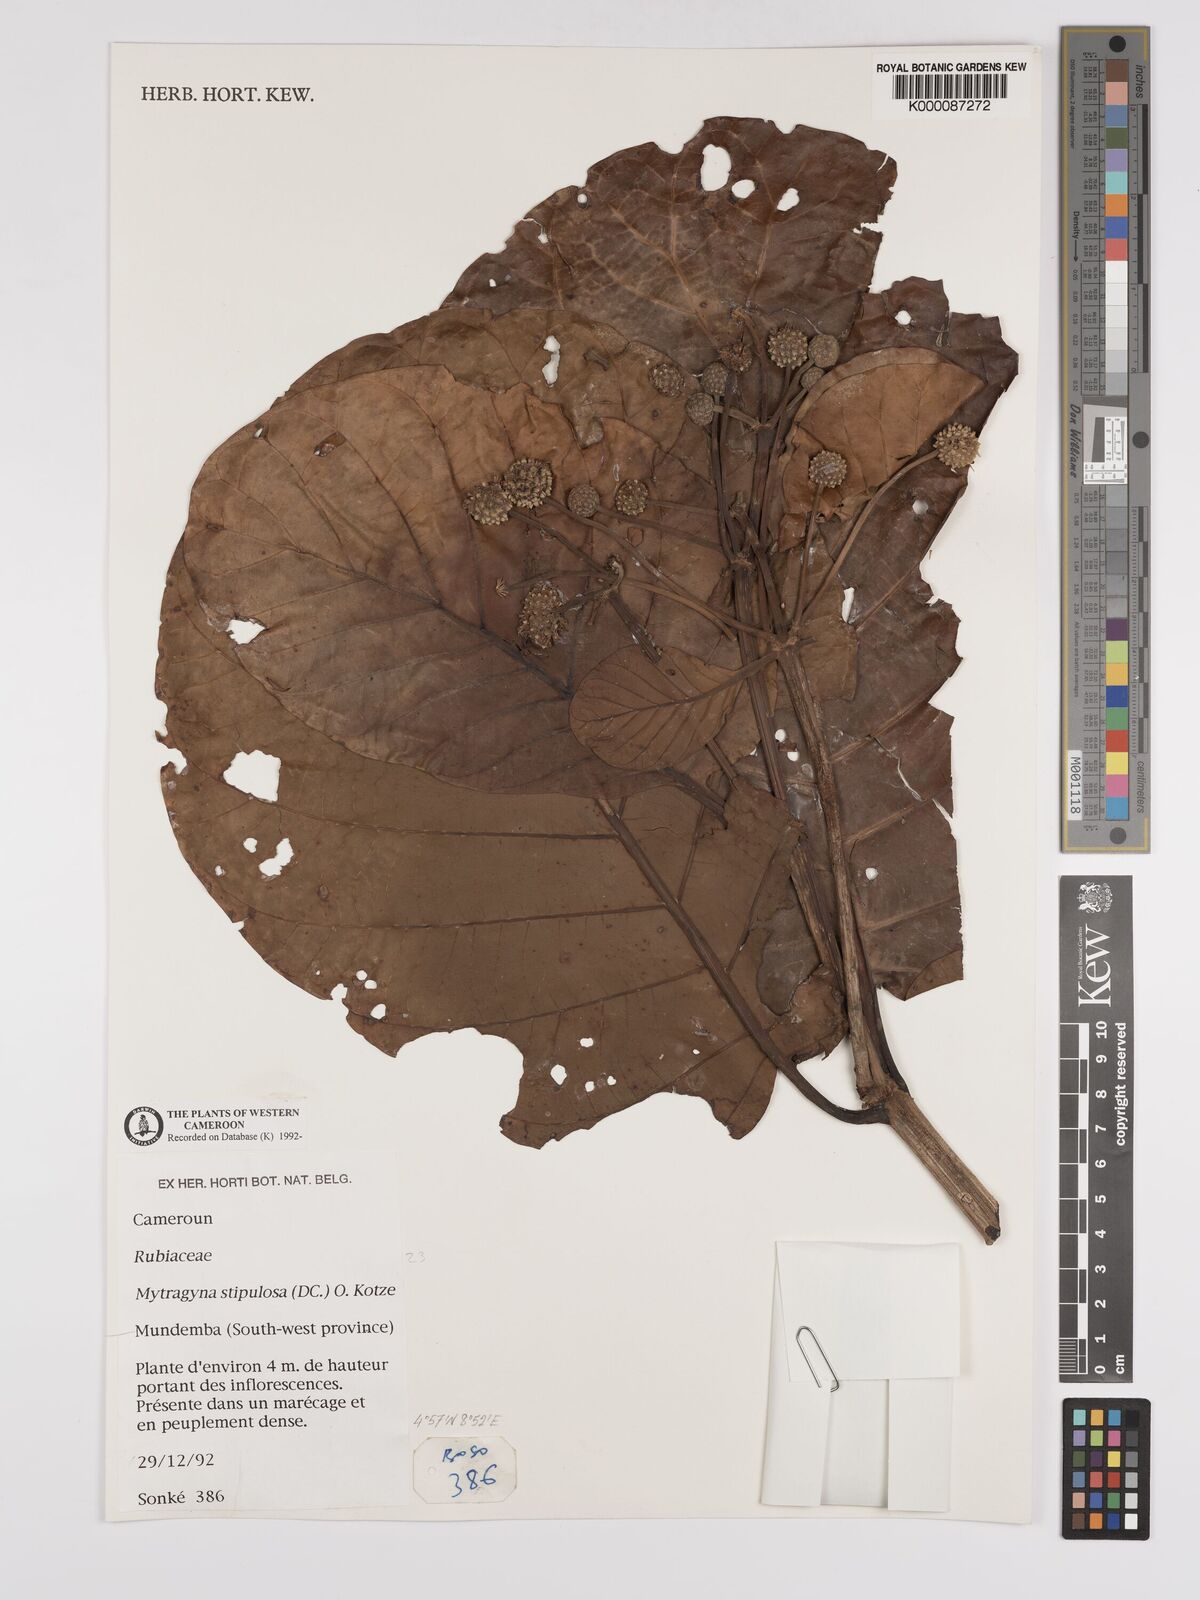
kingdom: Plantae
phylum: Tracheophyta
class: Magnoliopsida
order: Gentianales
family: Rubiaceae
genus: Mitragyna
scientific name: Mitragyna stipulosa
